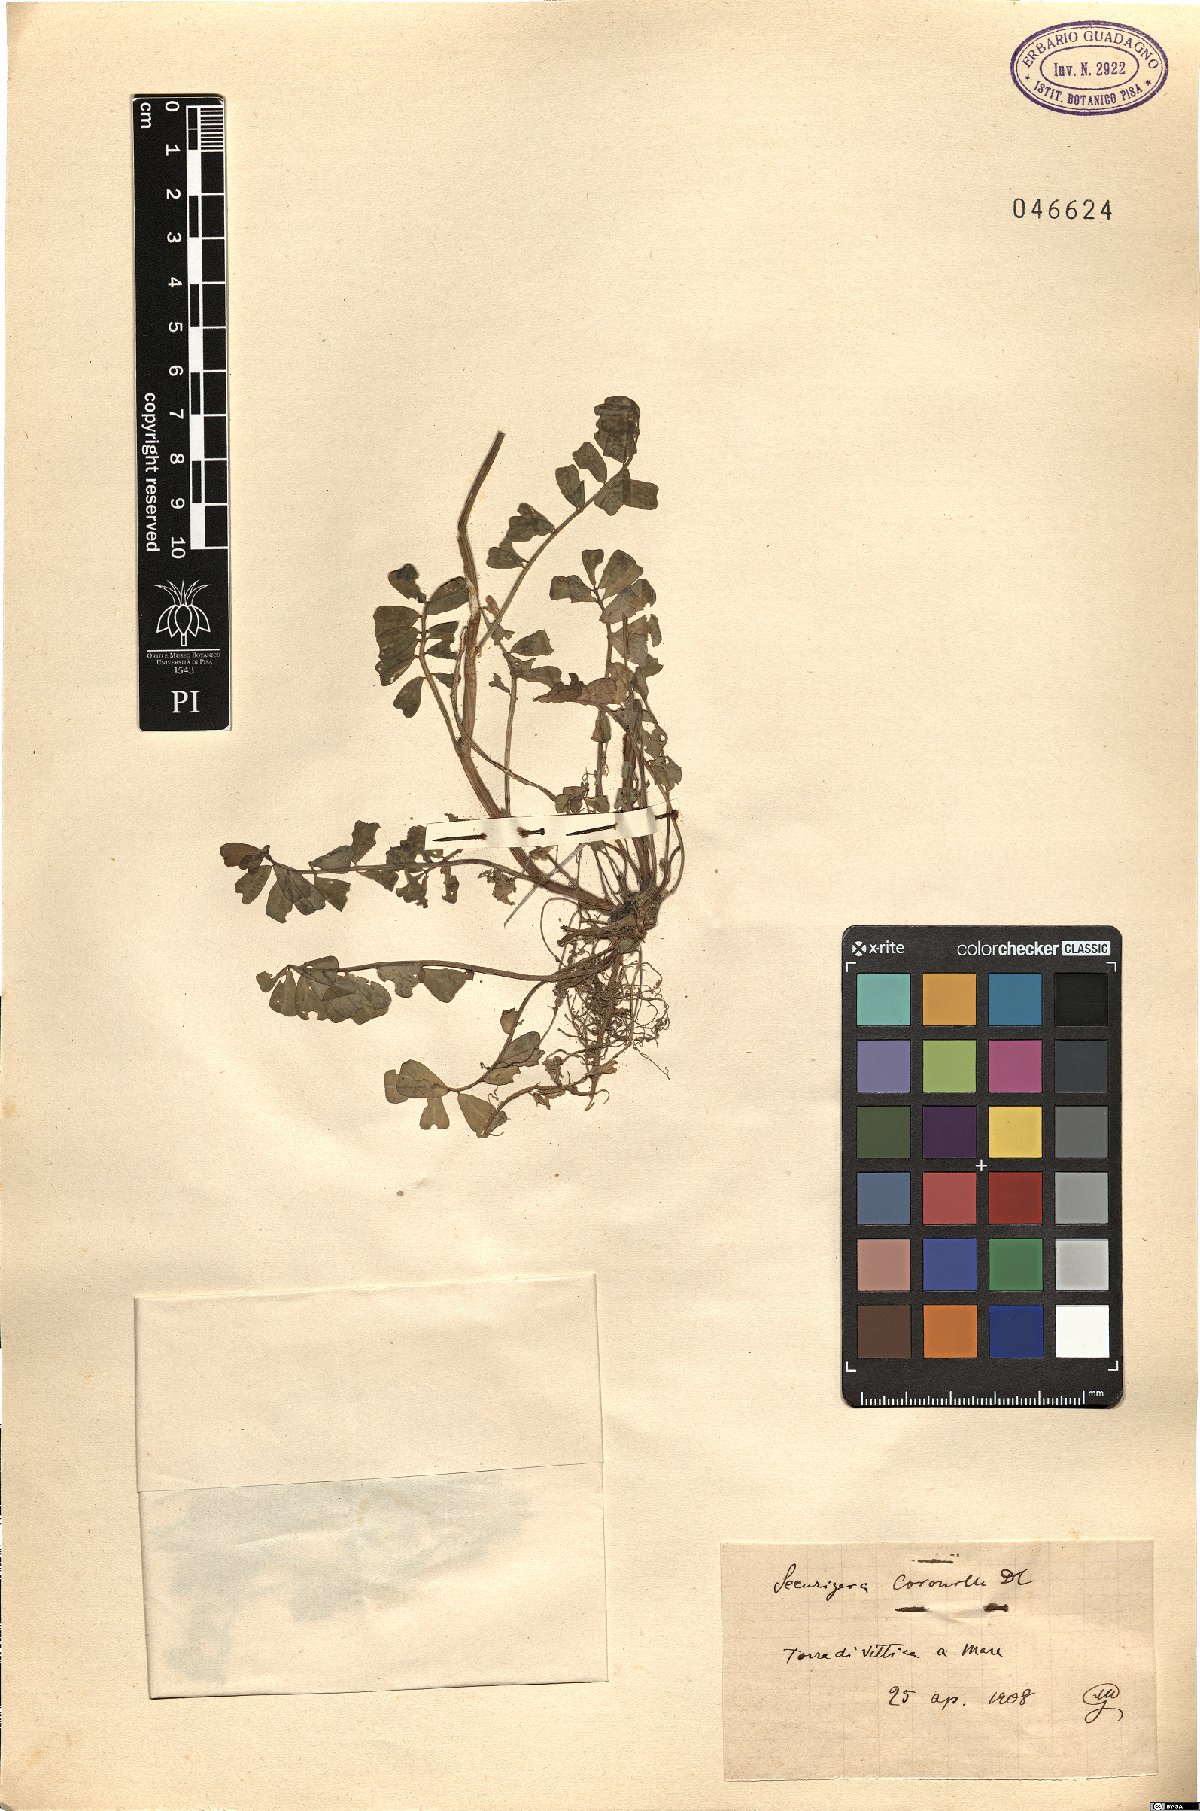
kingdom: Plantae
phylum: Tracheophyta
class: Magnoliopsida
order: Fabales
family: Fabaceae
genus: Coronilla
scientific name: Coronilla securidaca
